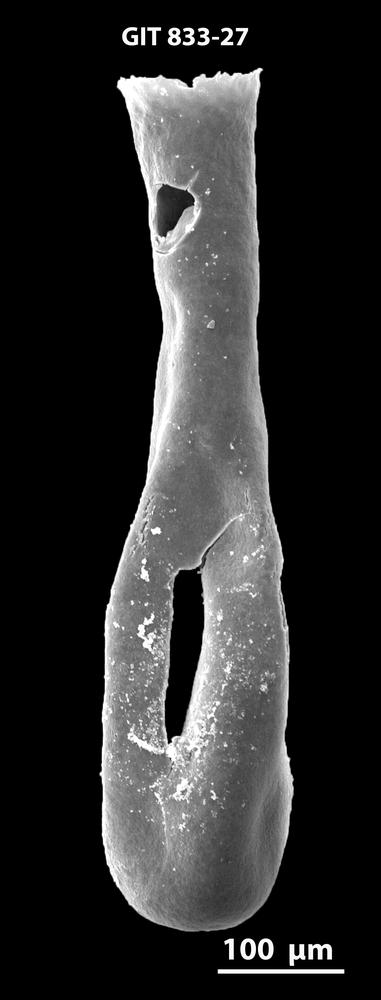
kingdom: Animalia
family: Lagenochitinidae
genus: Lagenochitina
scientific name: Lagenochitina megaesthonica
